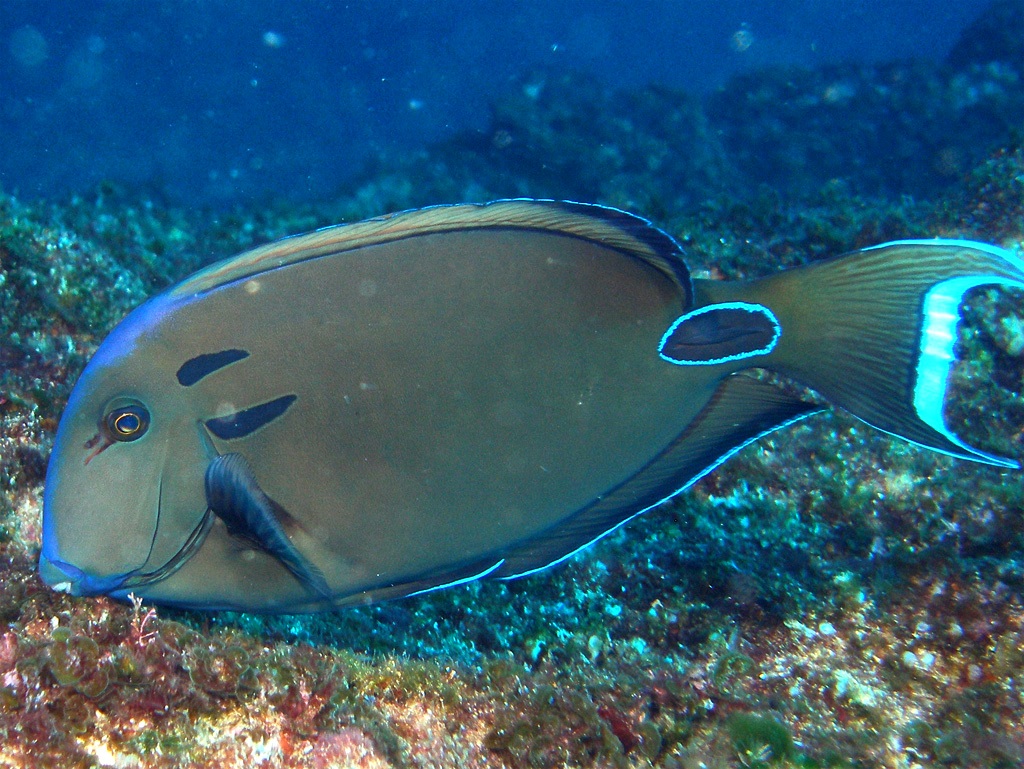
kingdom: Animalia
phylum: Chordata
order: Perciformes
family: Acanthuridae
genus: Acanthurus
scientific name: Acanthurus tennentii
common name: Doubleband surgeonfish
